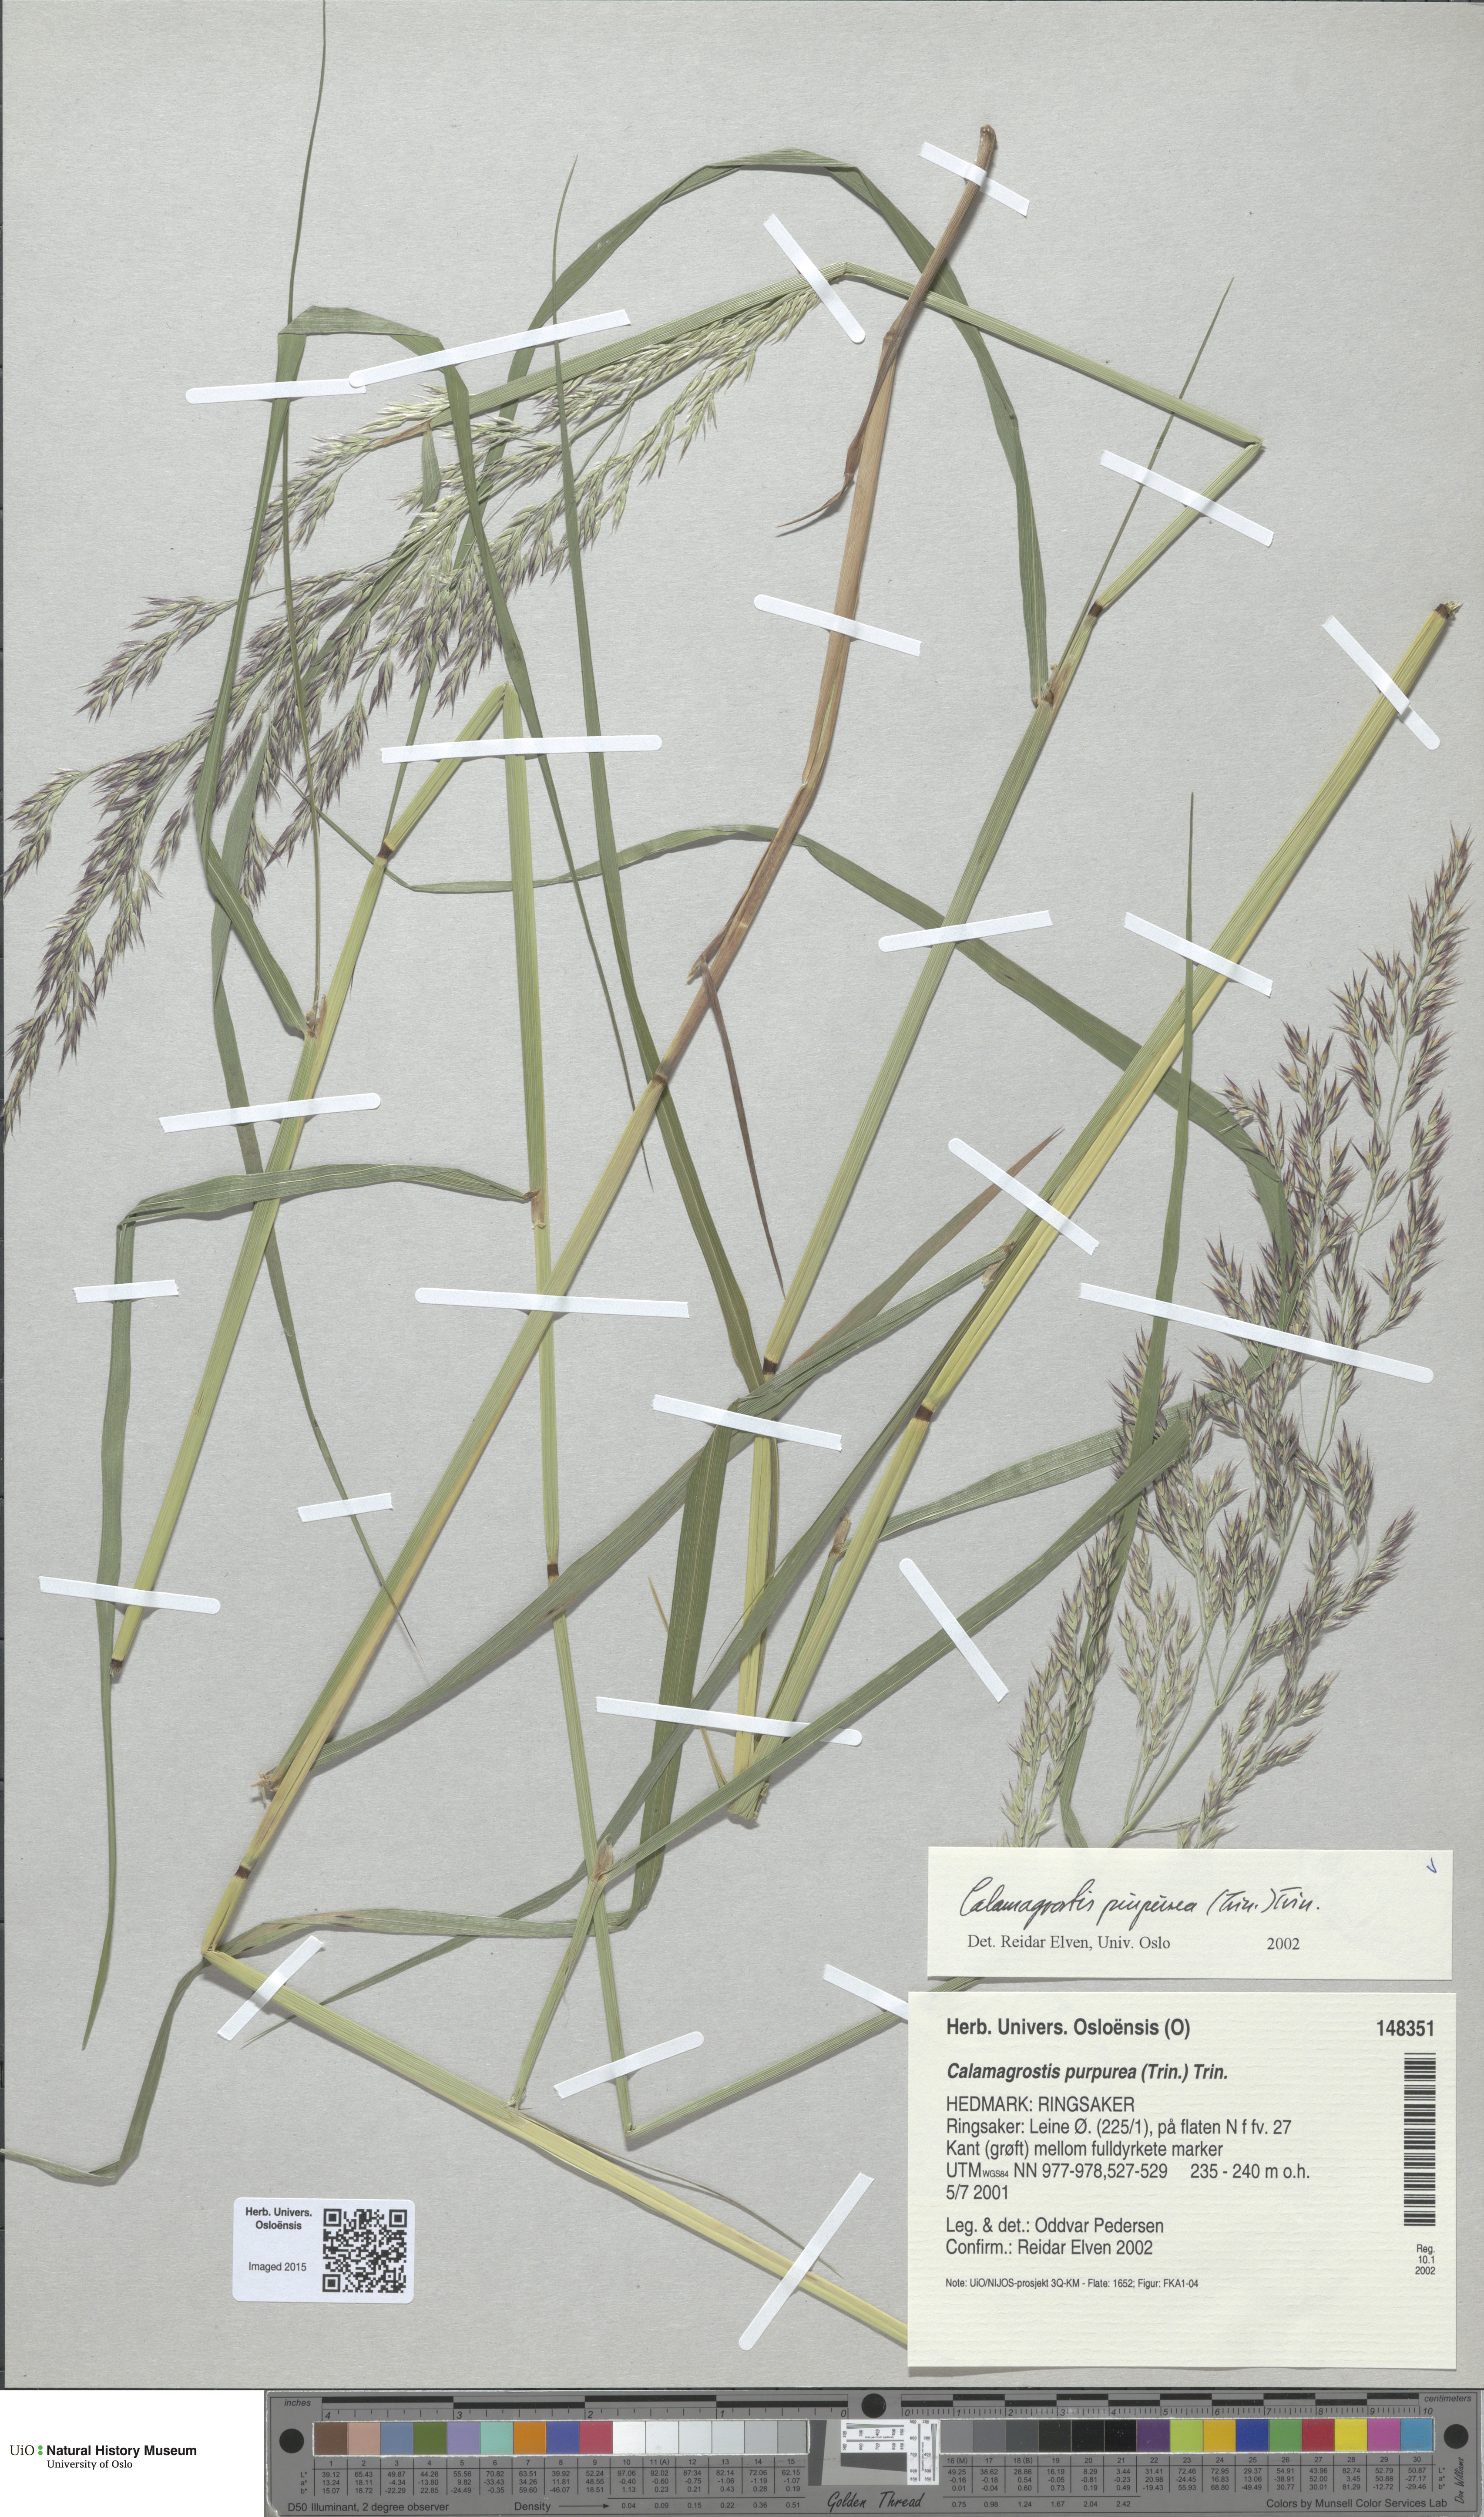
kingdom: Plantae
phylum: Tracheophyta
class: Liliopsida
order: Poales
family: Poaceae
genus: Calamagrostis
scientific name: Calamagrostis purpurea
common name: Scandinavian small-reed
